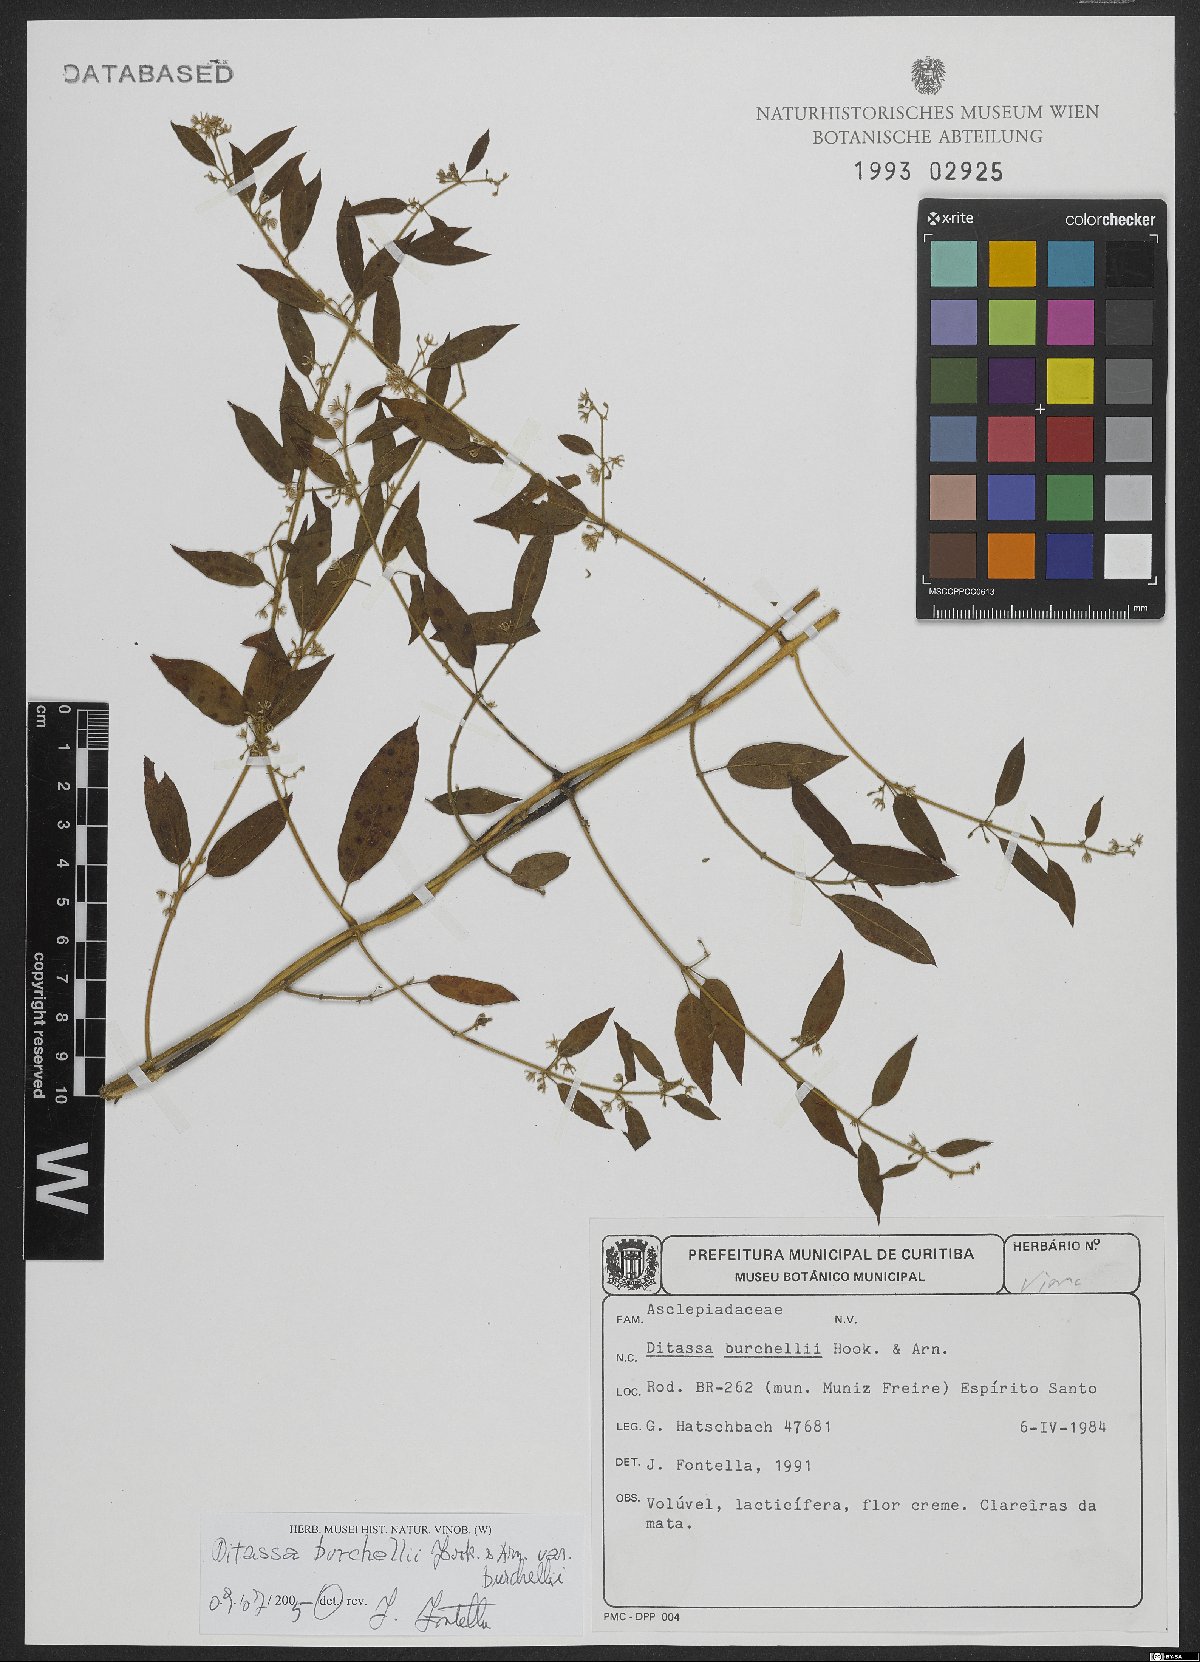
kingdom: Plantae
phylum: Tracheophyta
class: Magnoliopsida
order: Gentianales
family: Apocynaceae
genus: Metastelma
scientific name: Metastelma burchellii
